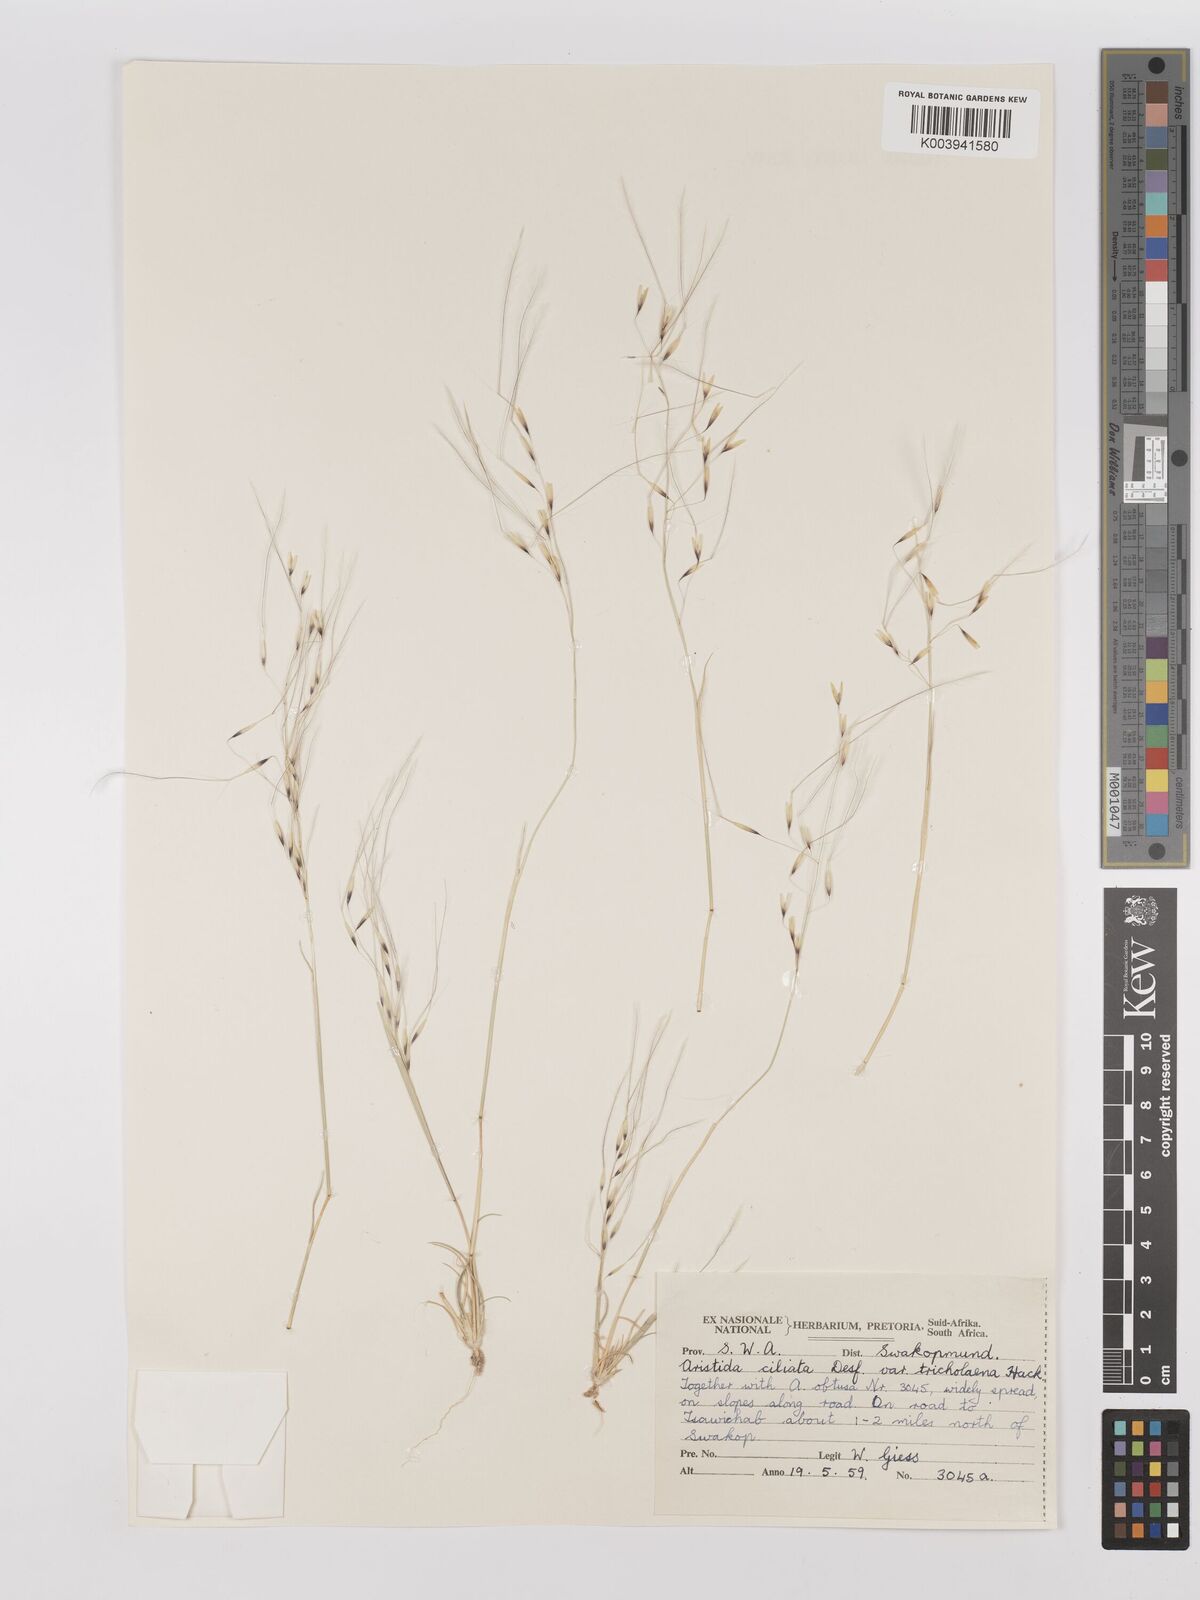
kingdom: Plantae
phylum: Tracheophyta
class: Liliopsida
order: Poales
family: Poaceae
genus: Stipagrostis
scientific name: Stipagrostis ciliata
